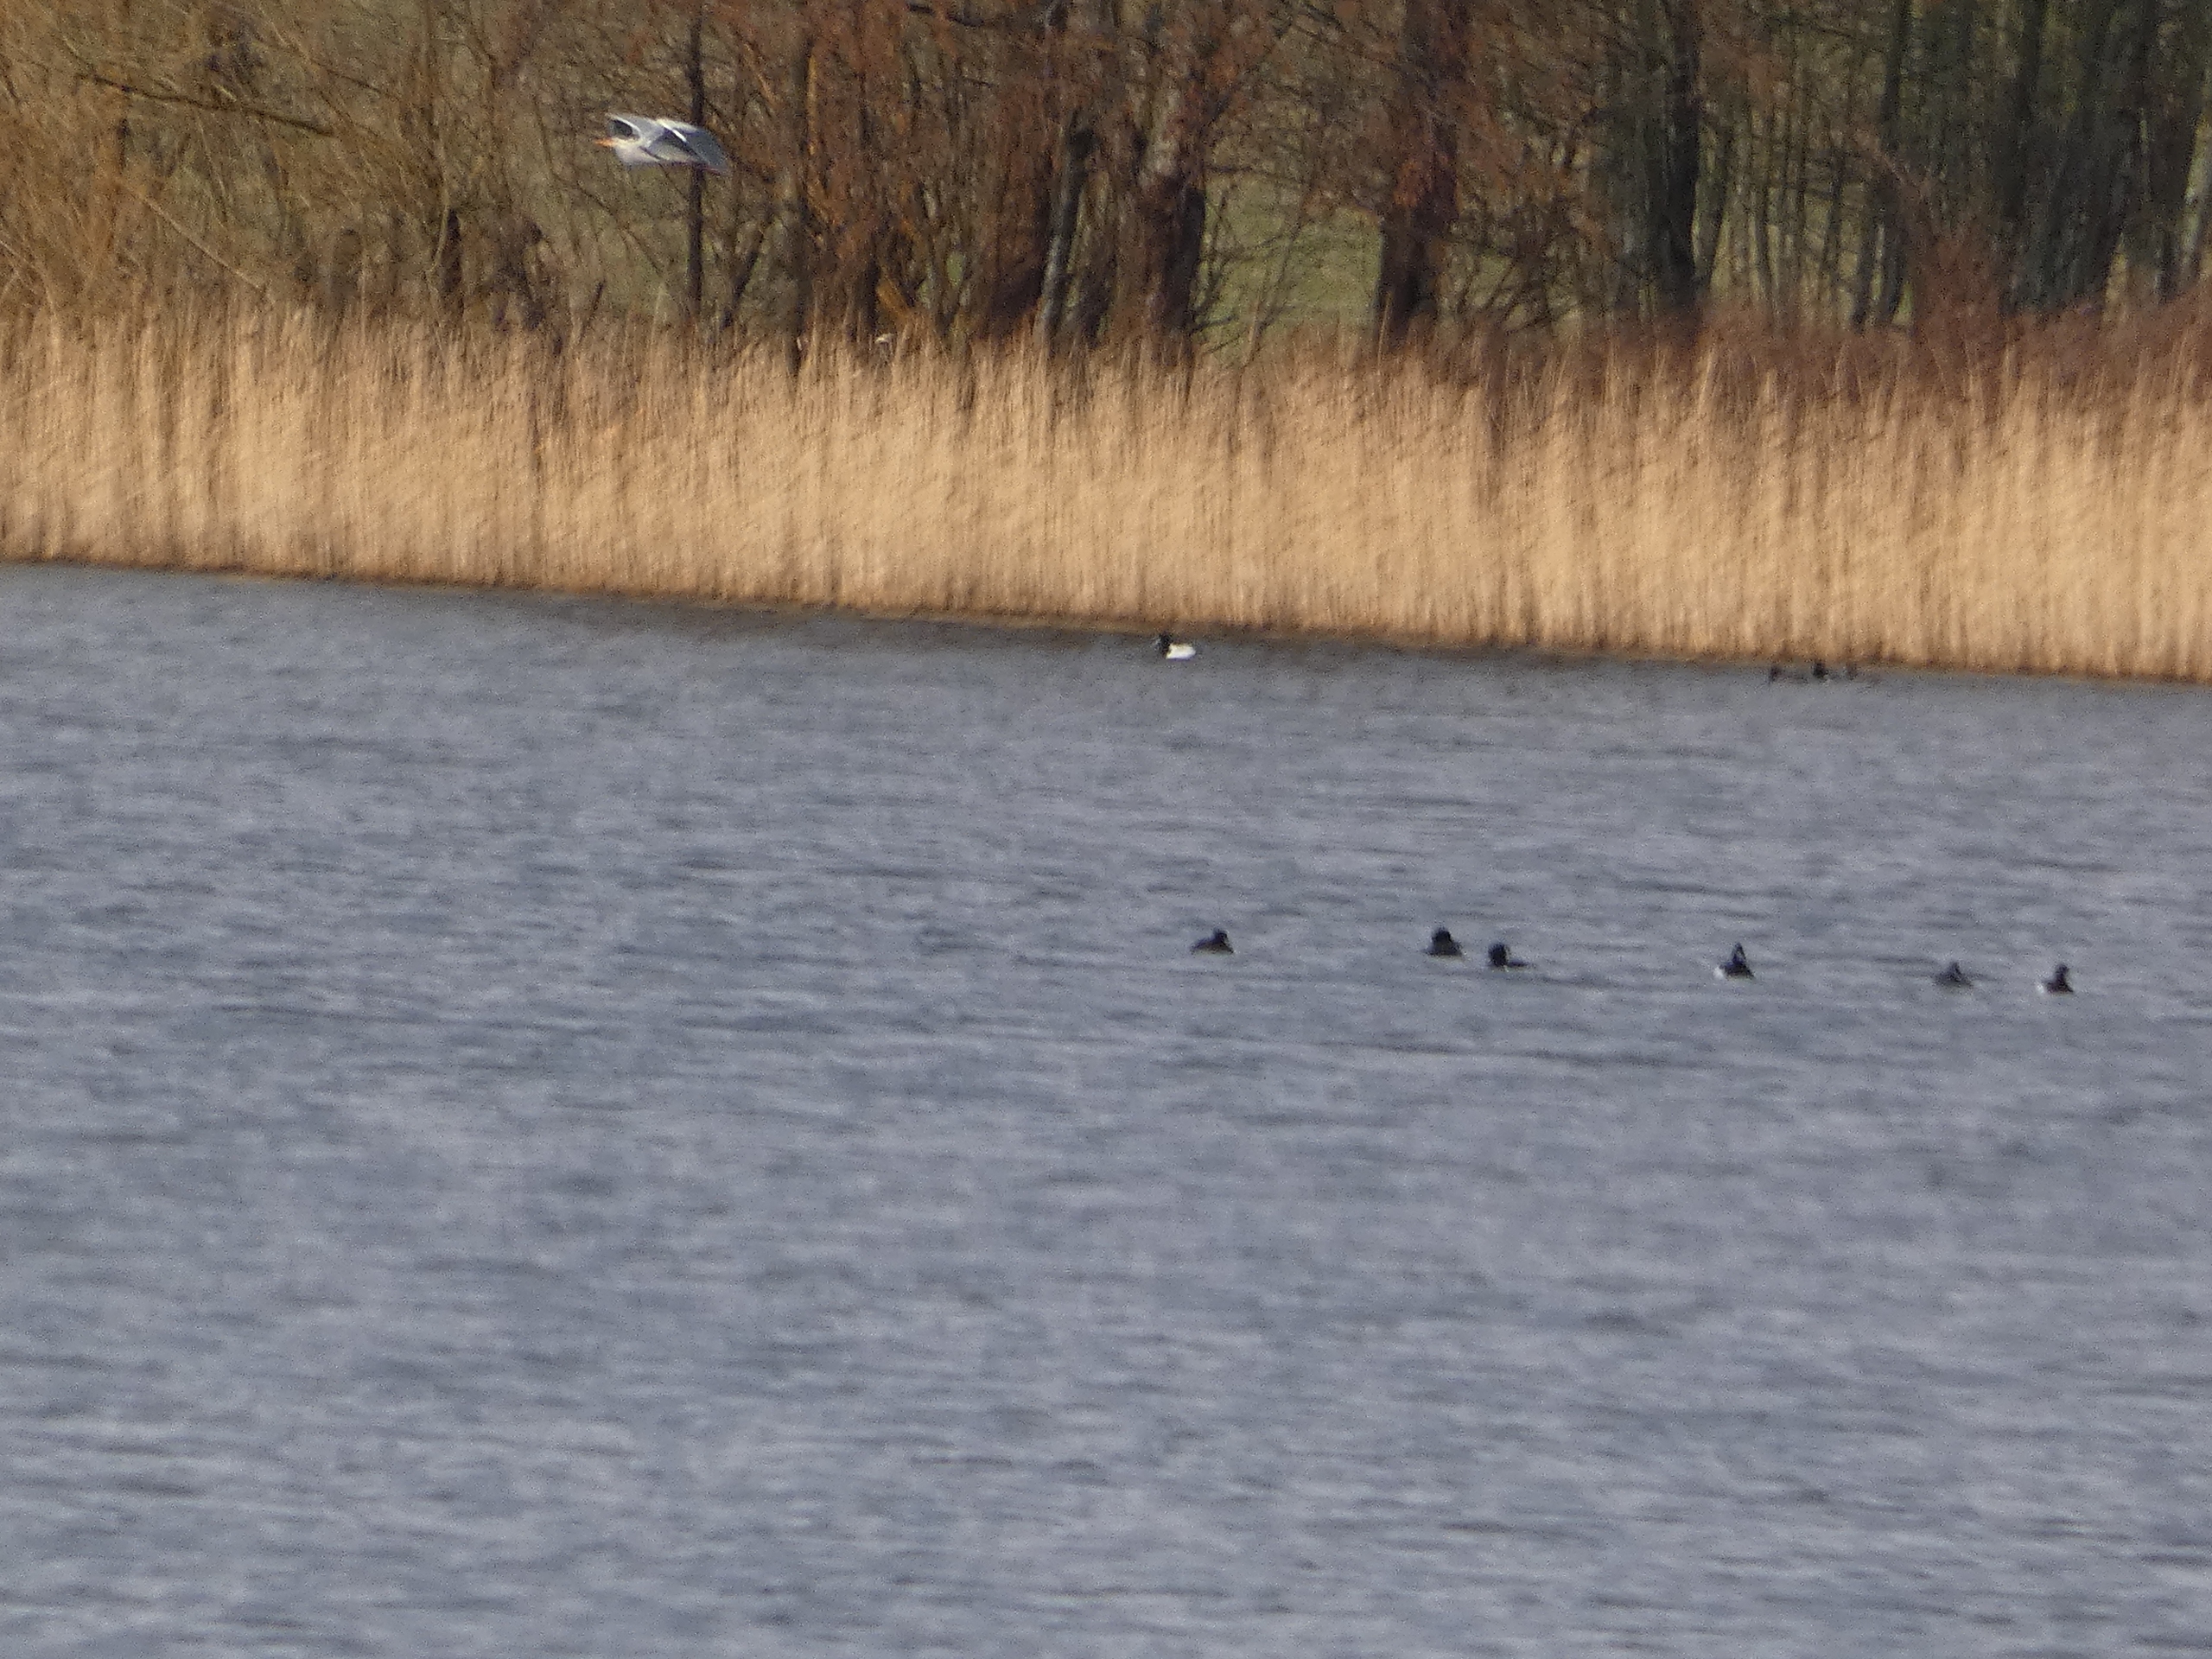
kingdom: Animalia
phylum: Chordata
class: Aves
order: Pelecaniformes
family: Ardeidae
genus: Ardea
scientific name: Ardea cinerea
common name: Fiskehejre
